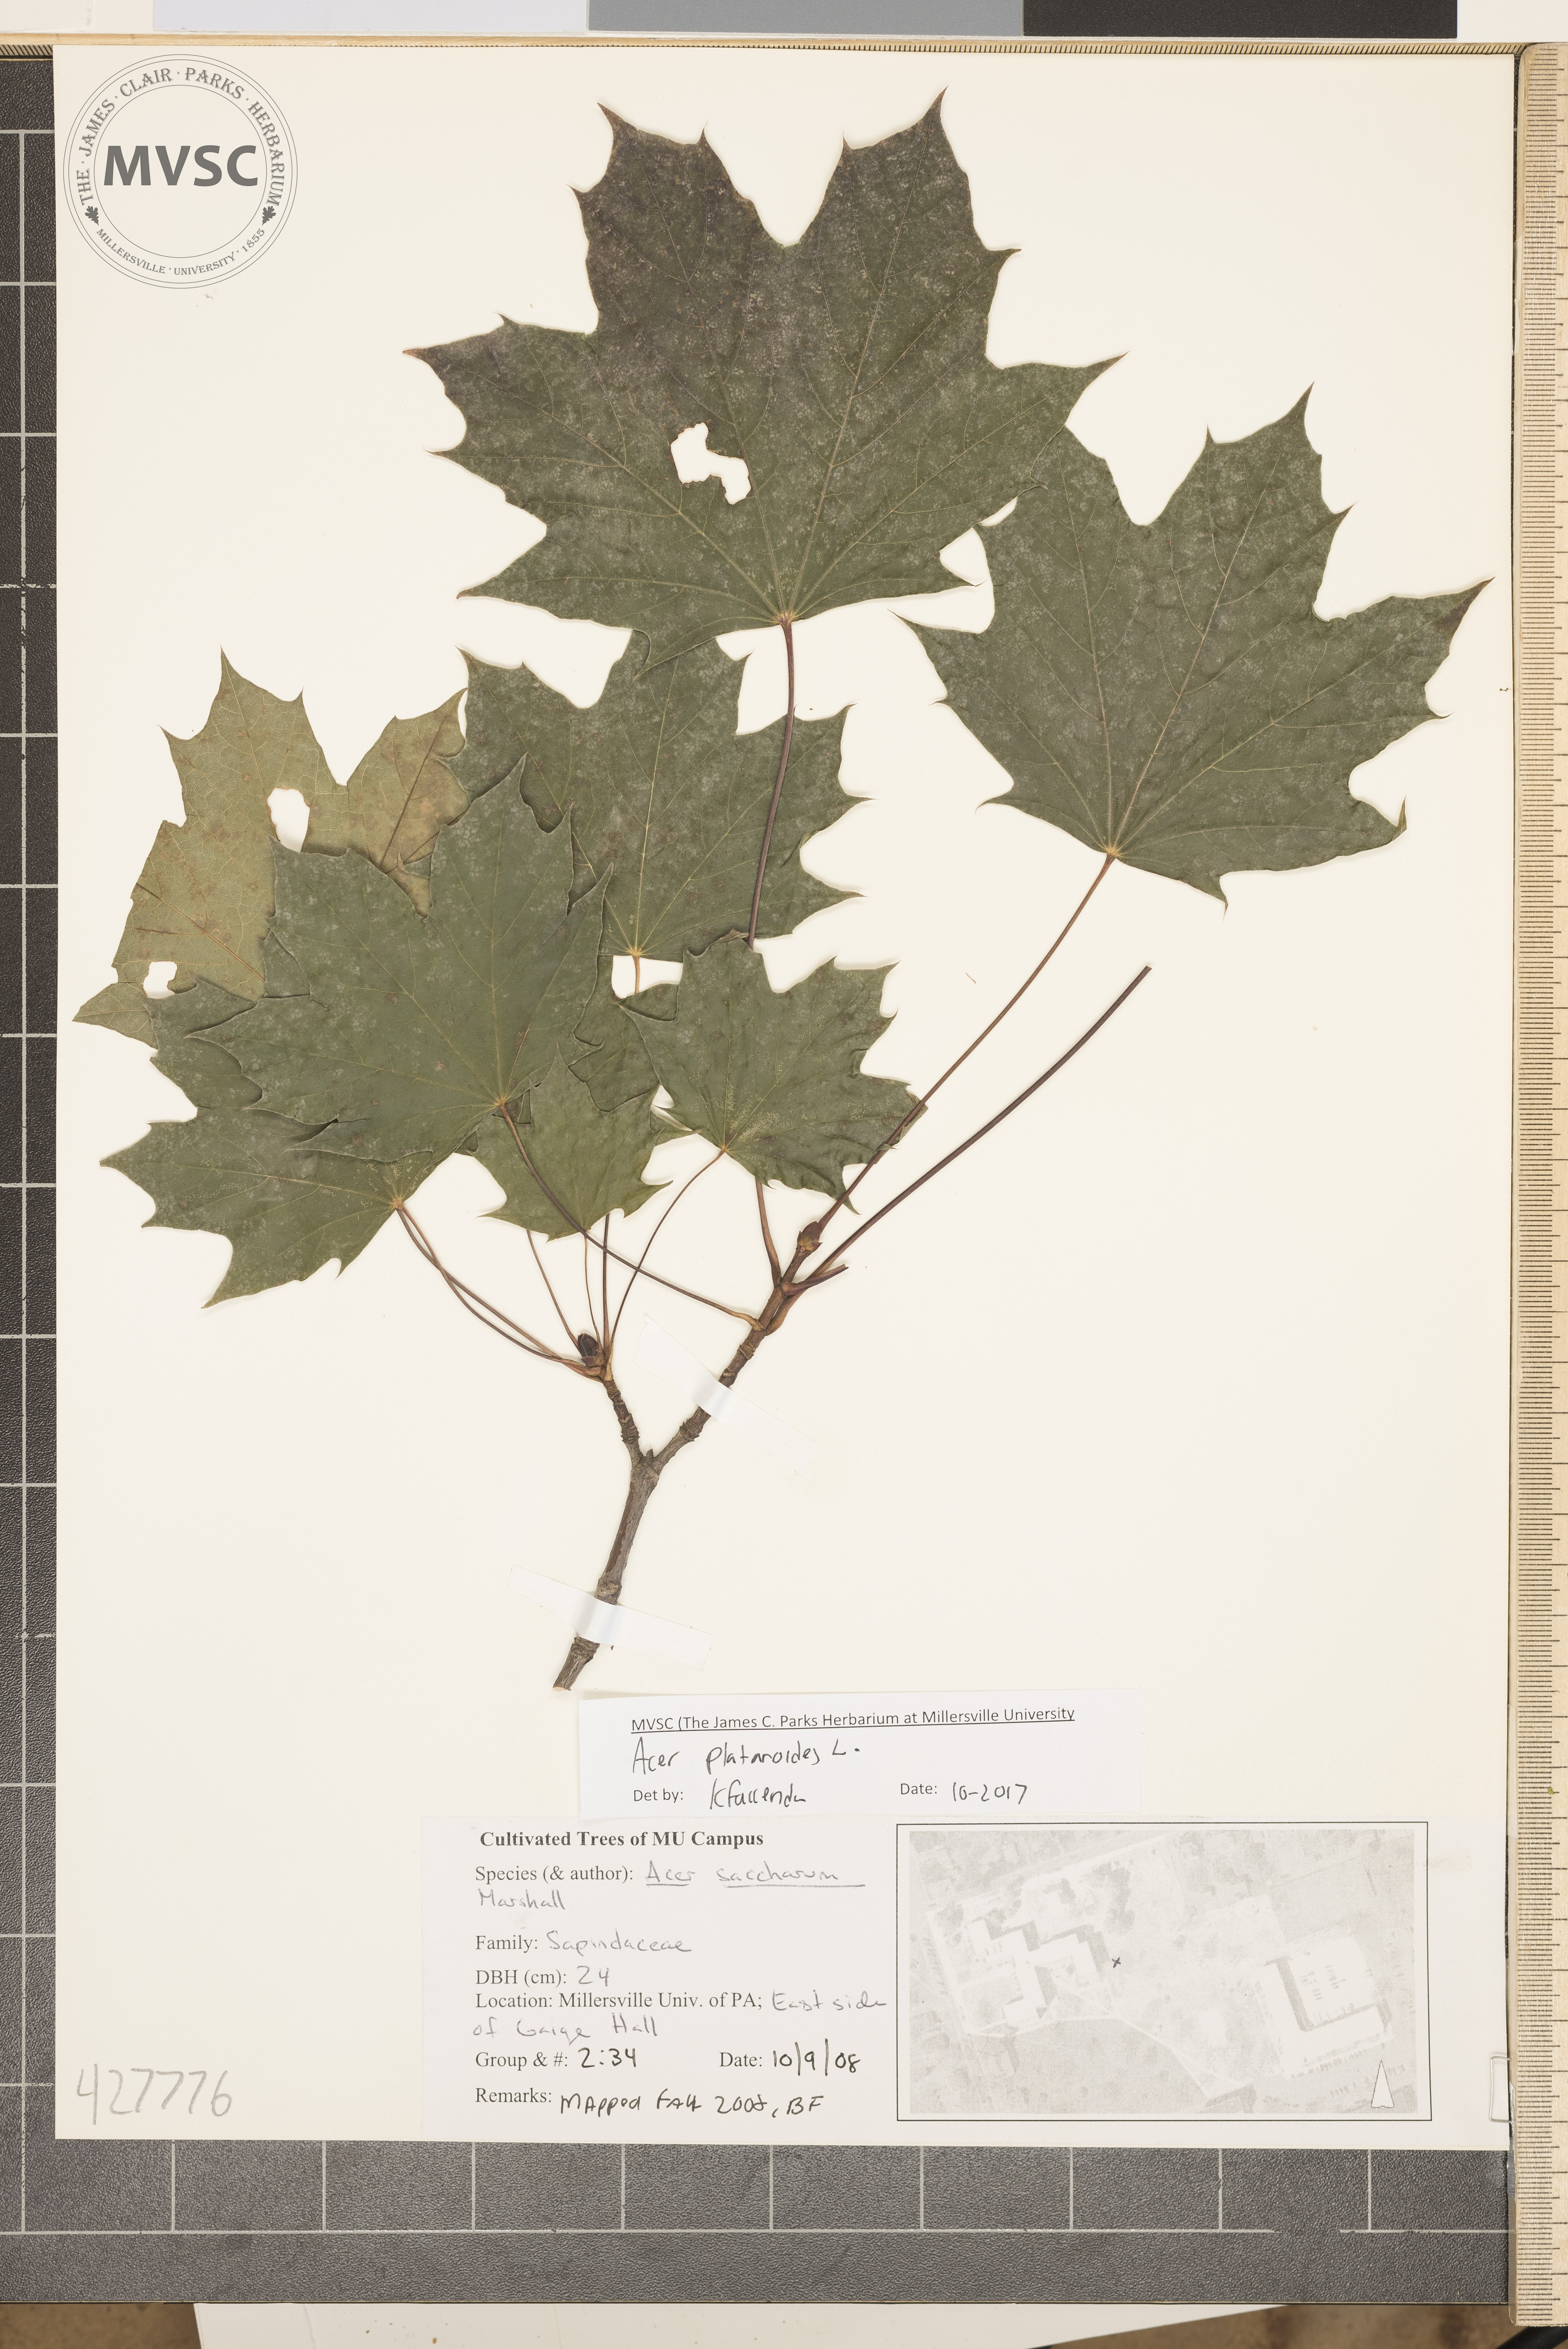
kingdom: Plantae
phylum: Tracheophyta
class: Magnoliopsida
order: Sapindales
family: Sapindaceae
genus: Acer
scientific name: Acer platanoides
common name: Norway maple
